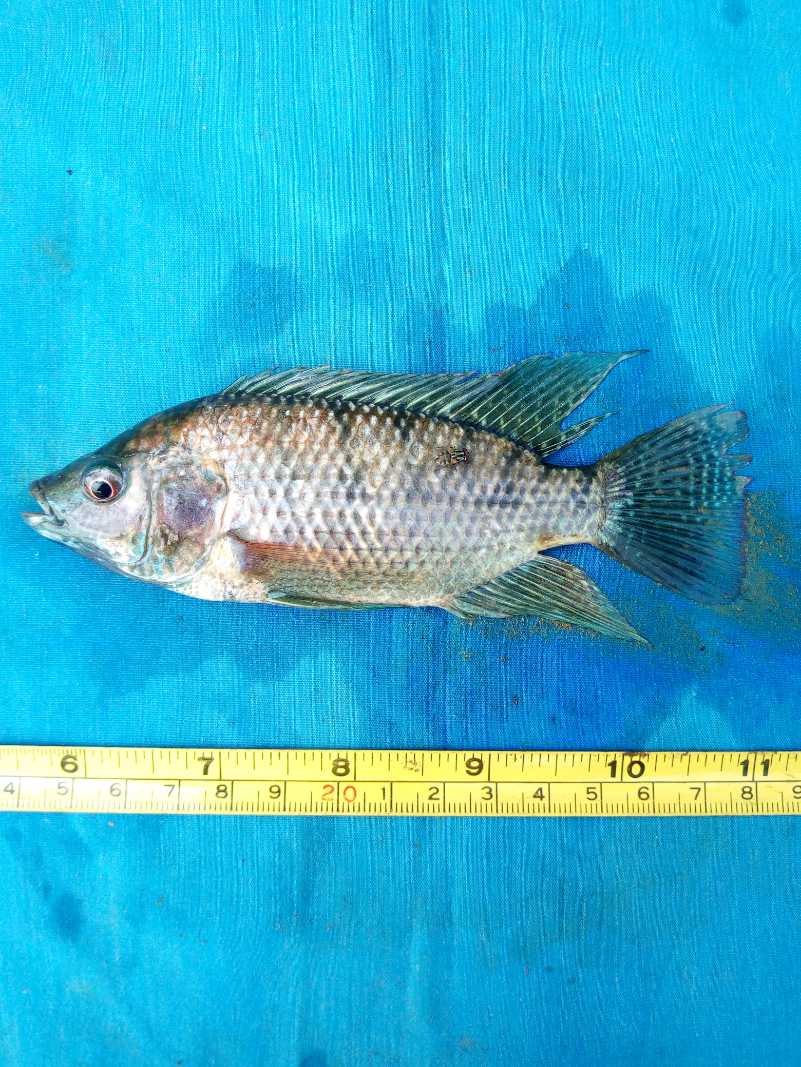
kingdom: Animalia
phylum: Chordata
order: Perciformes
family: Cichlidae
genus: Oreochromis
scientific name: Oreochromis spilurus
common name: Sabaki tilapia
